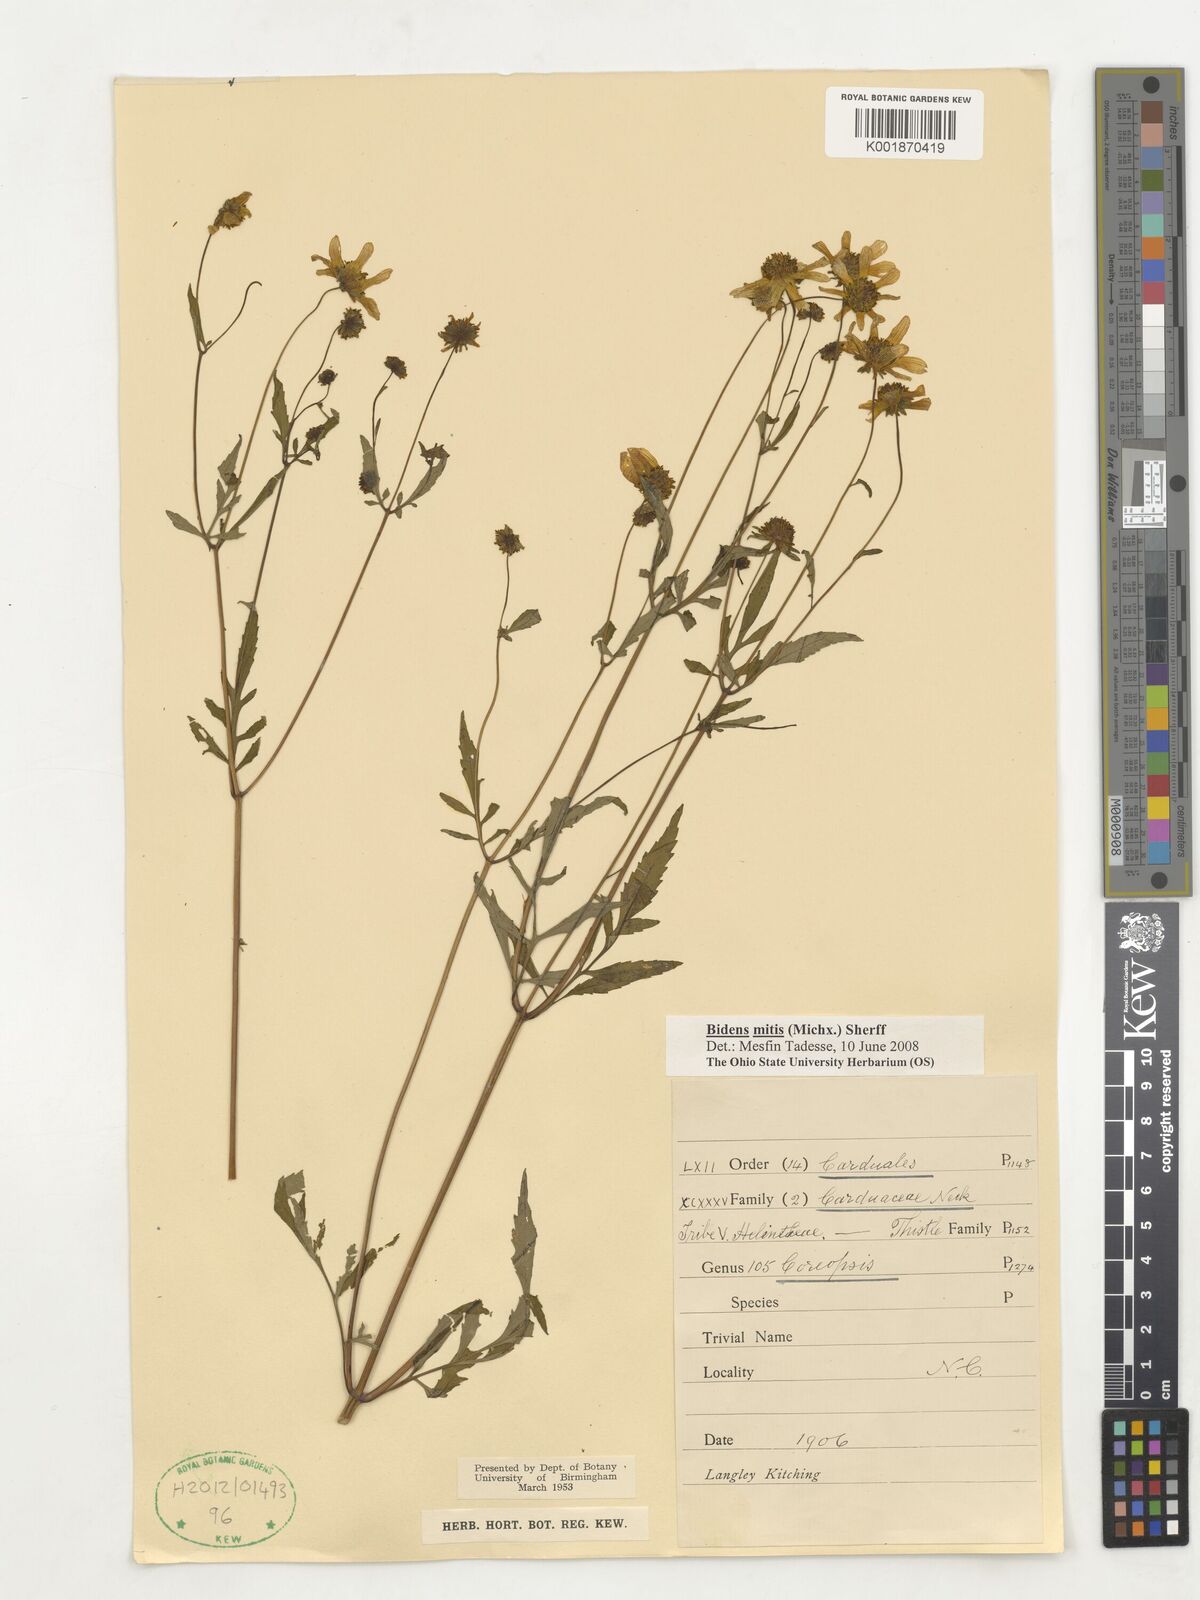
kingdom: Plantae
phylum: Tracheophyta
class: Magnoliopsida
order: Asterales
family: Asteraceae
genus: Bidens
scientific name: Bidens mitis
